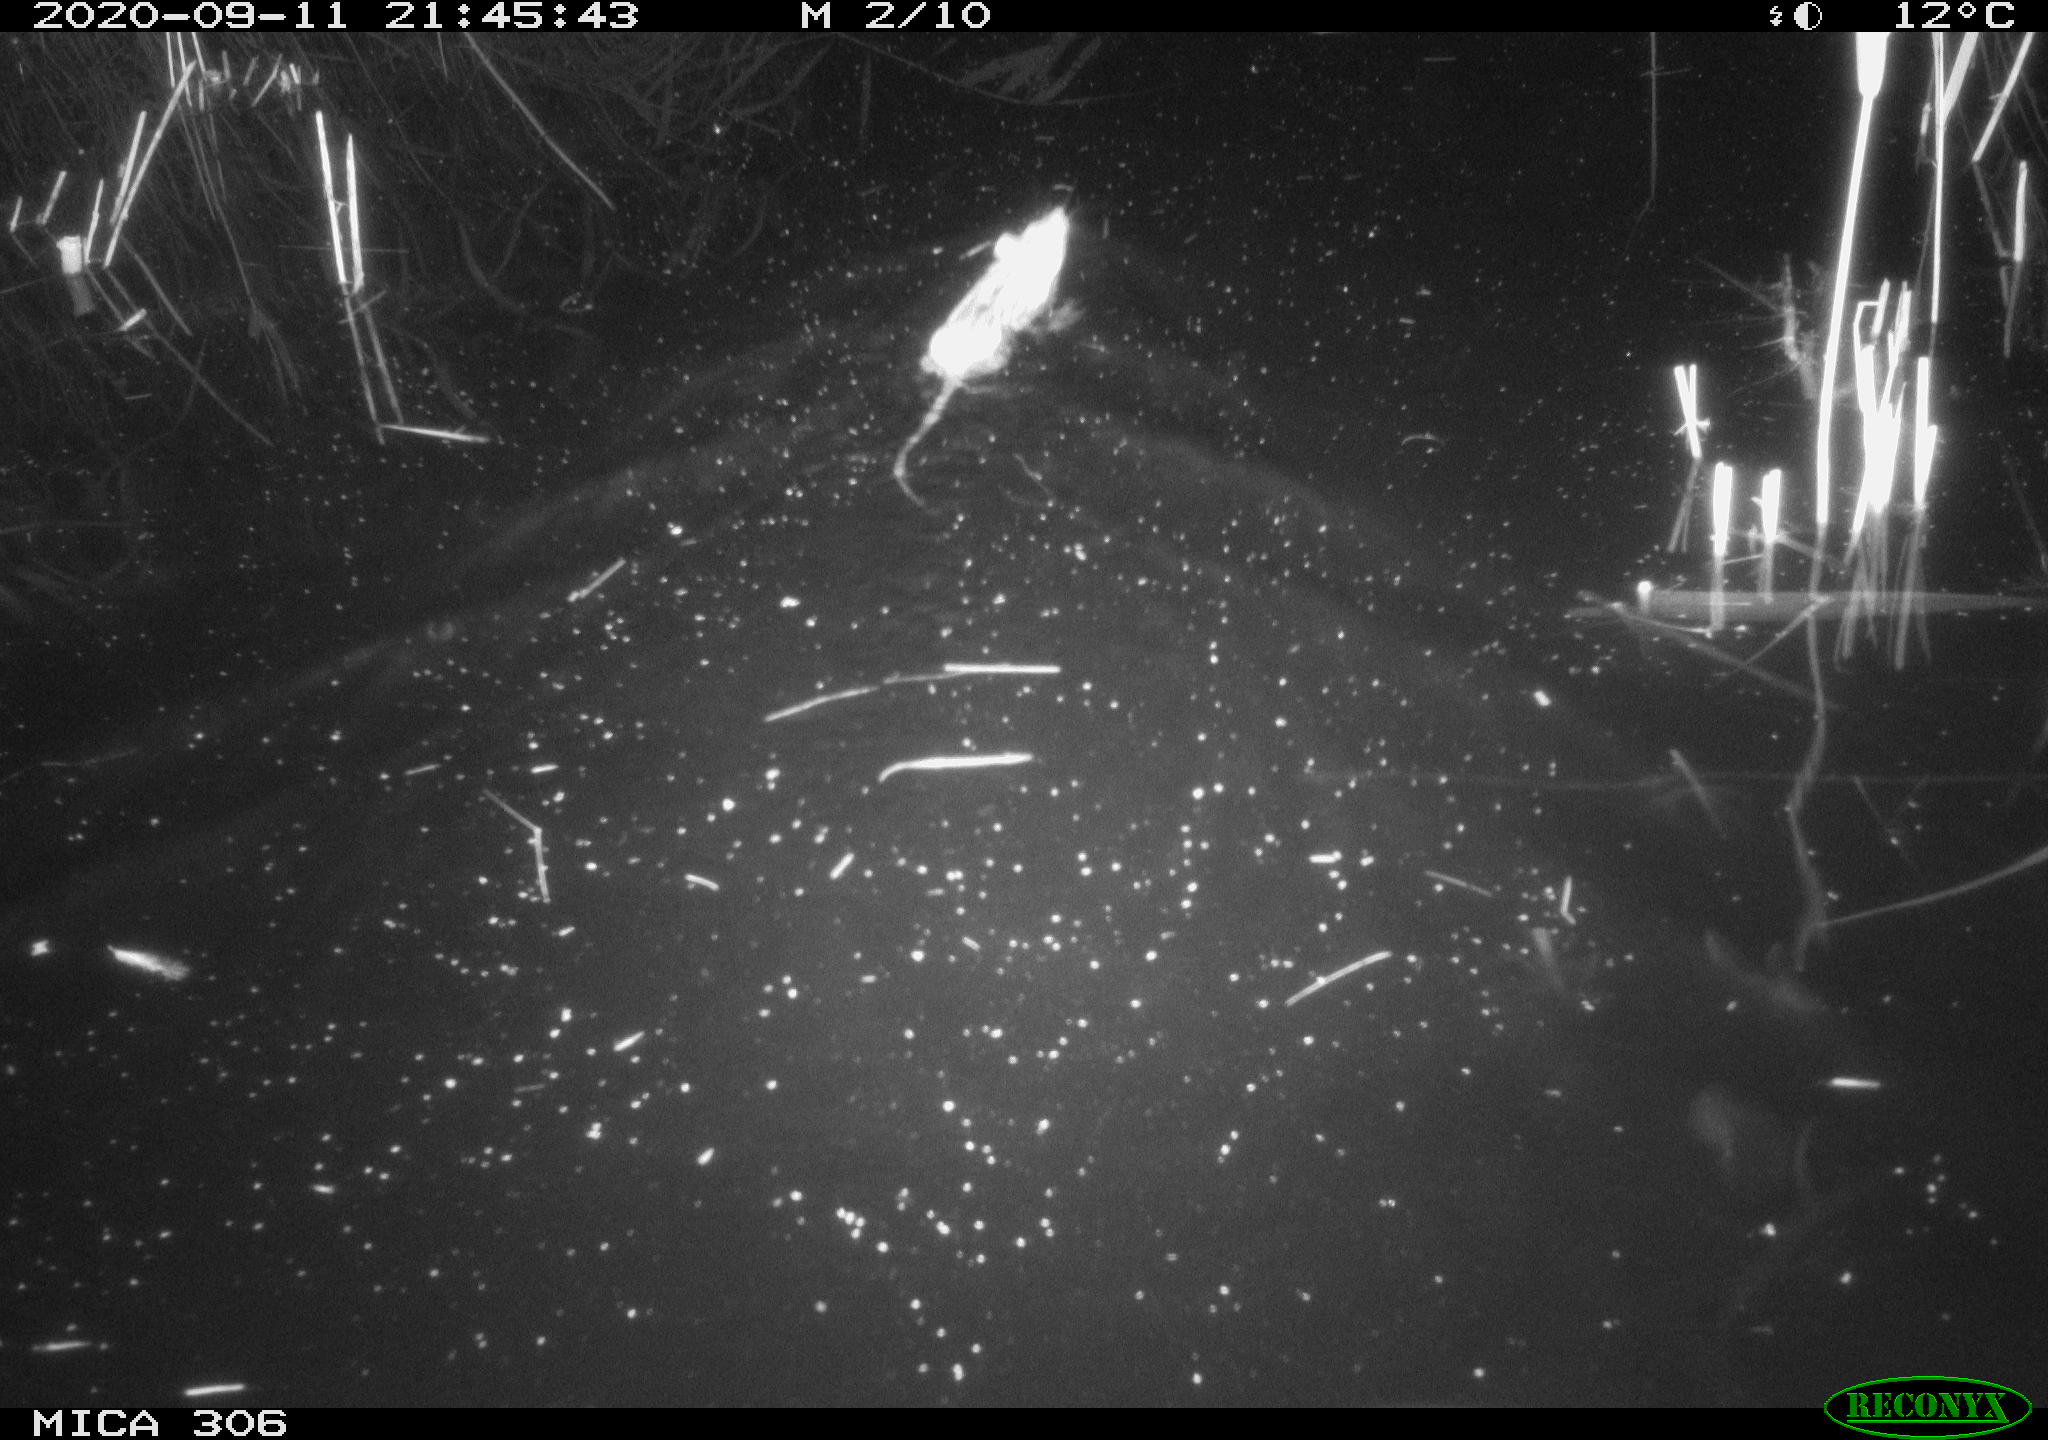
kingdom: Animalia
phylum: Chordata
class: Mammalia
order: Rodentia
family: Muridae
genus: Rattus
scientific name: Rattus norvegicus
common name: Brown rat
